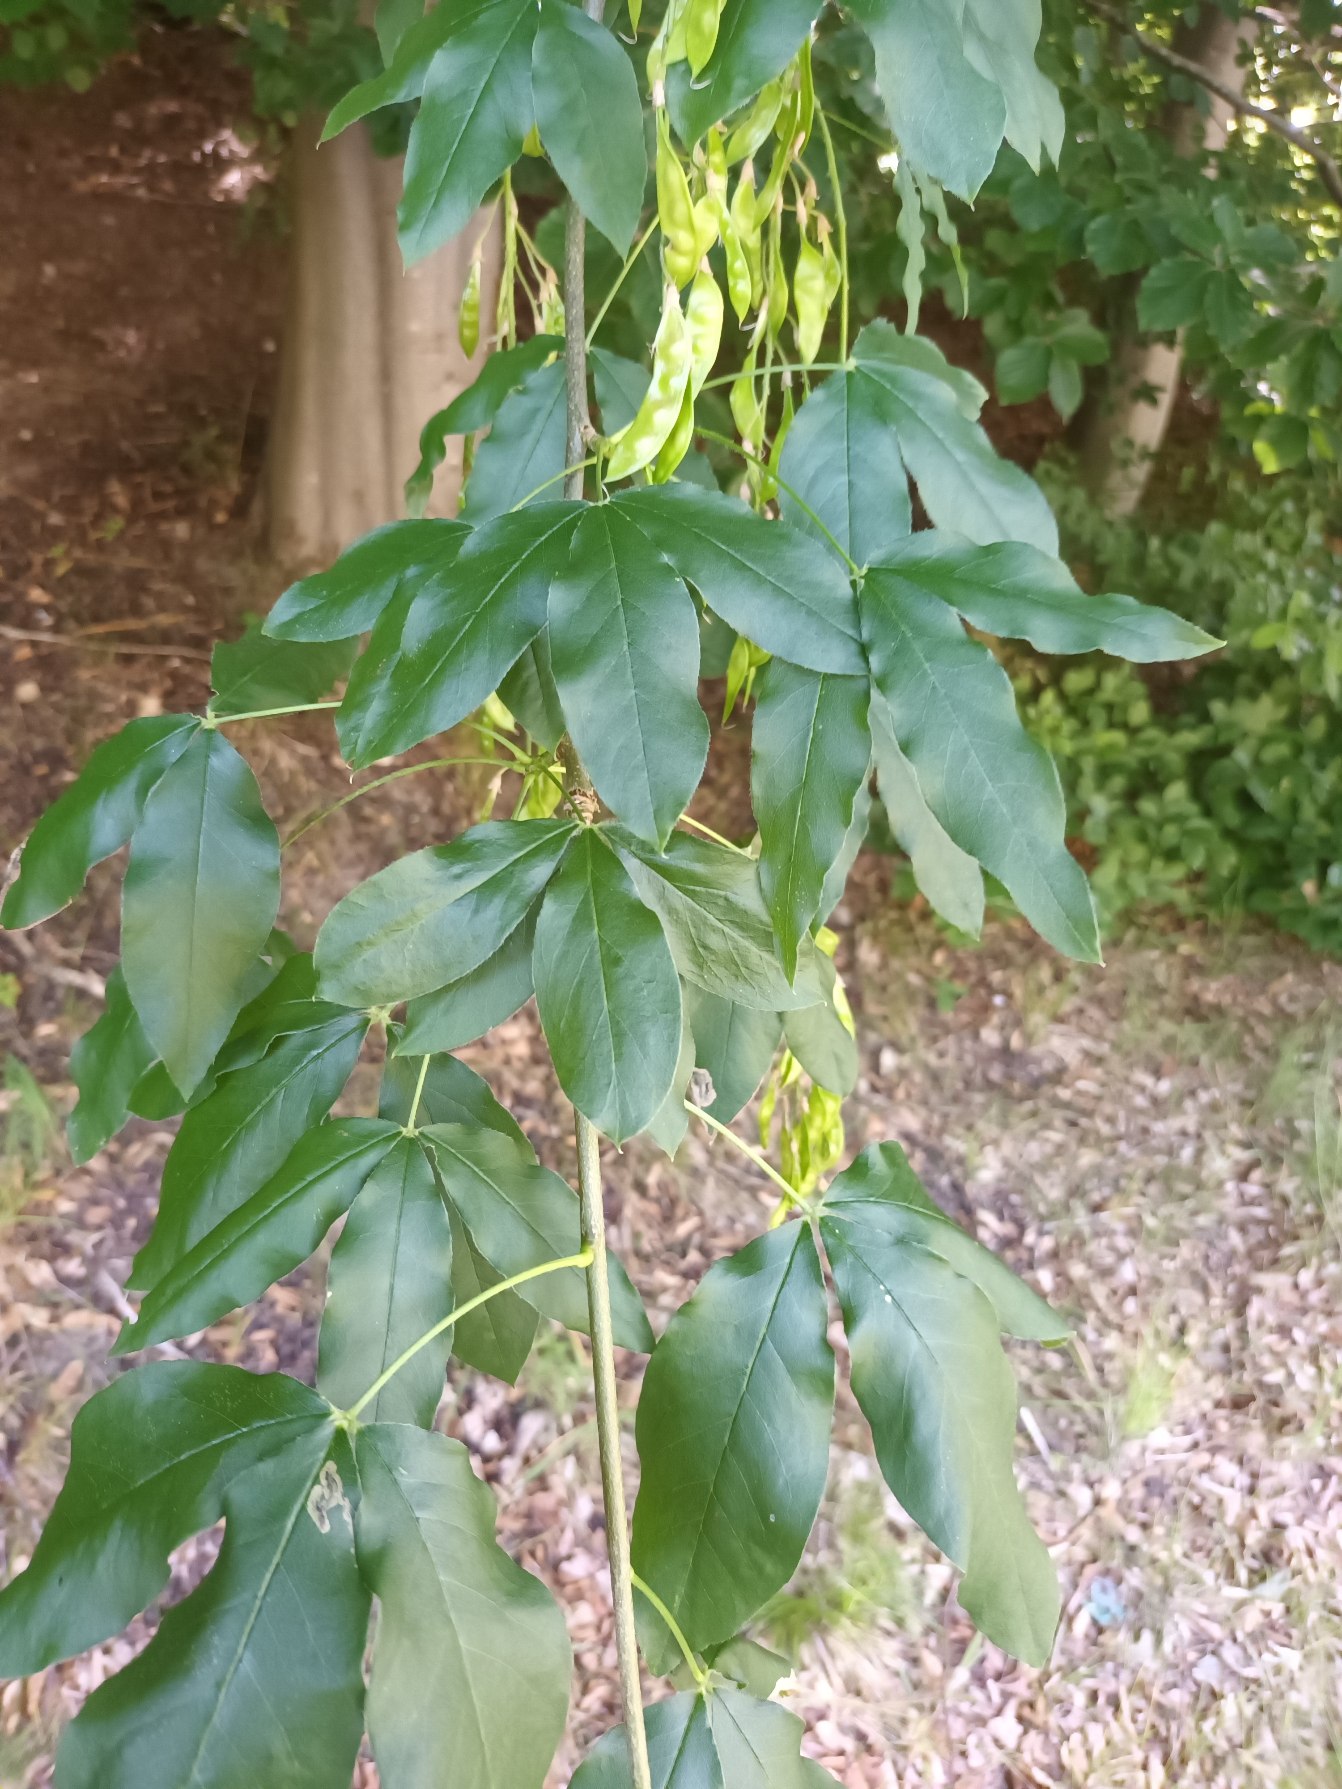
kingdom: Plantae
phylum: Tracheophyta
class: Magnoliopsida
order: Fabales
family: Fabaceae
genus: Laburnum
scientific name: Laburnum alpinum
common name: Alpe-guldregn
